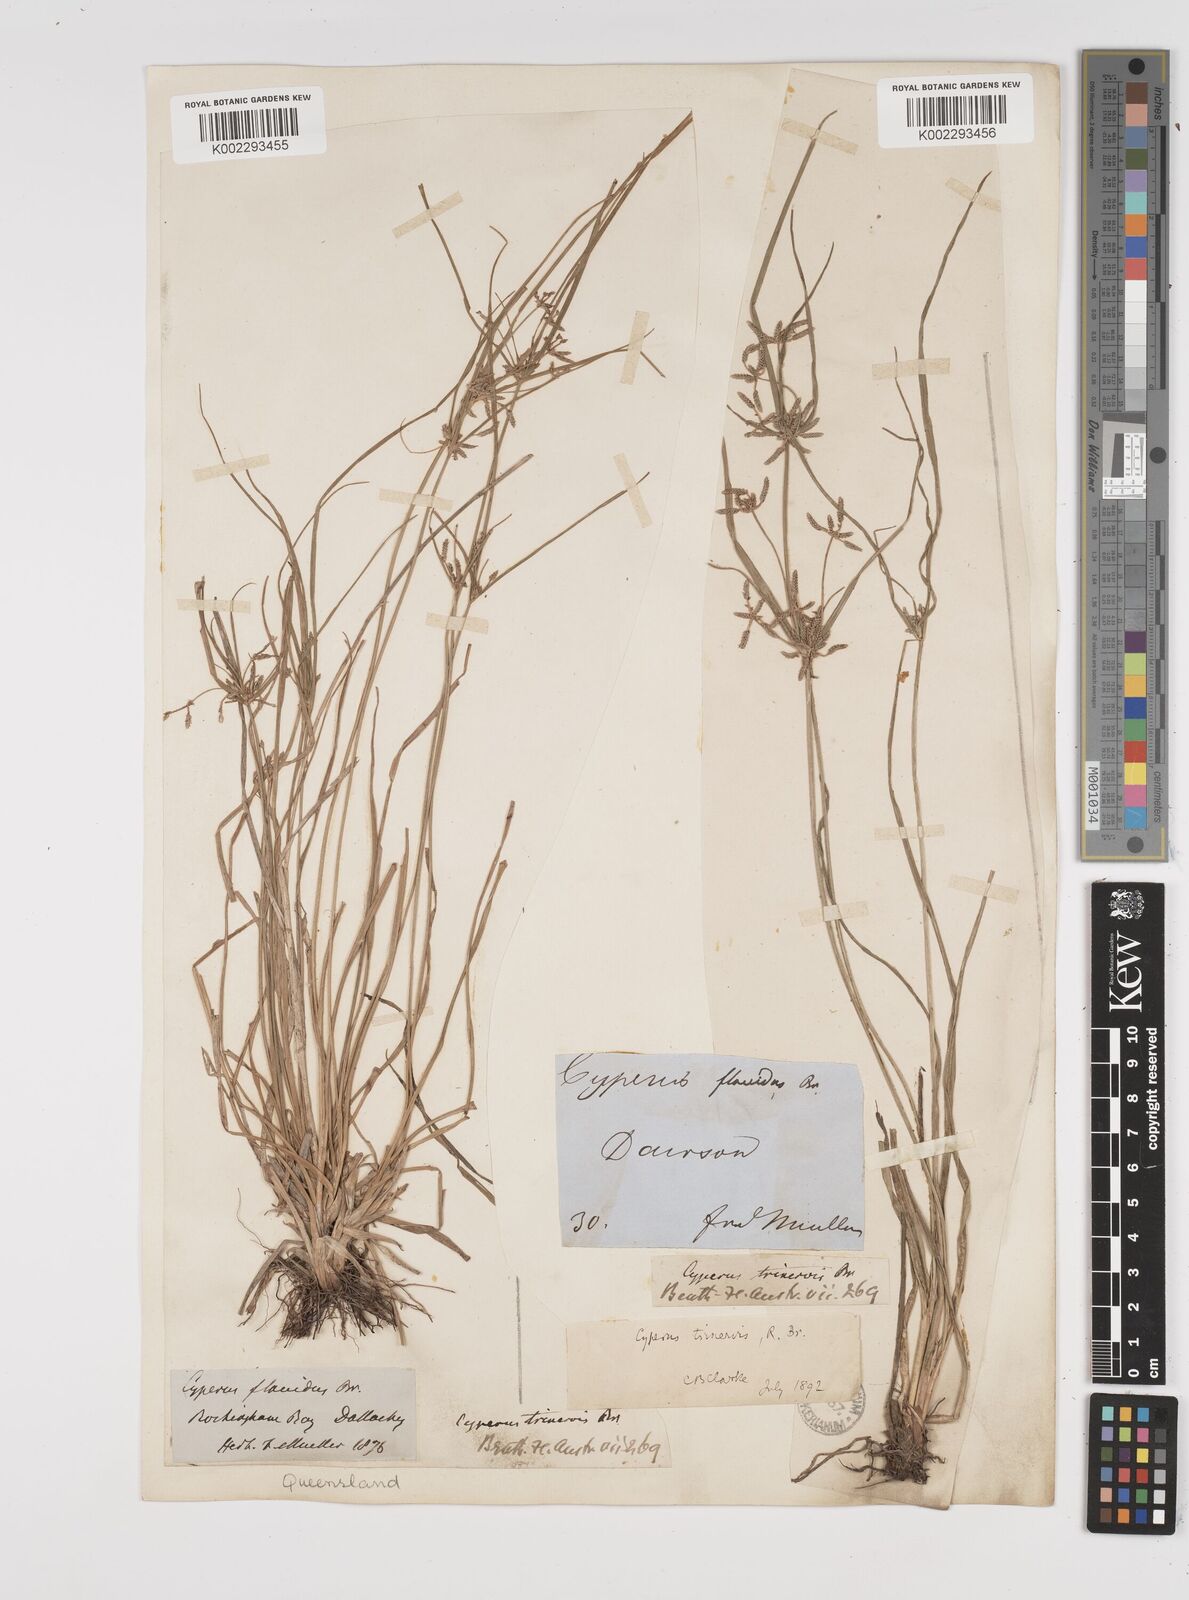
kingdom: Plantae
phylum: Tracheophyta
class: Liliopsida
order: Poales
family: Cyperaceae
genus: Cyperus
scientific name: Cyperus trinervis
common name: Australian flatsedge
